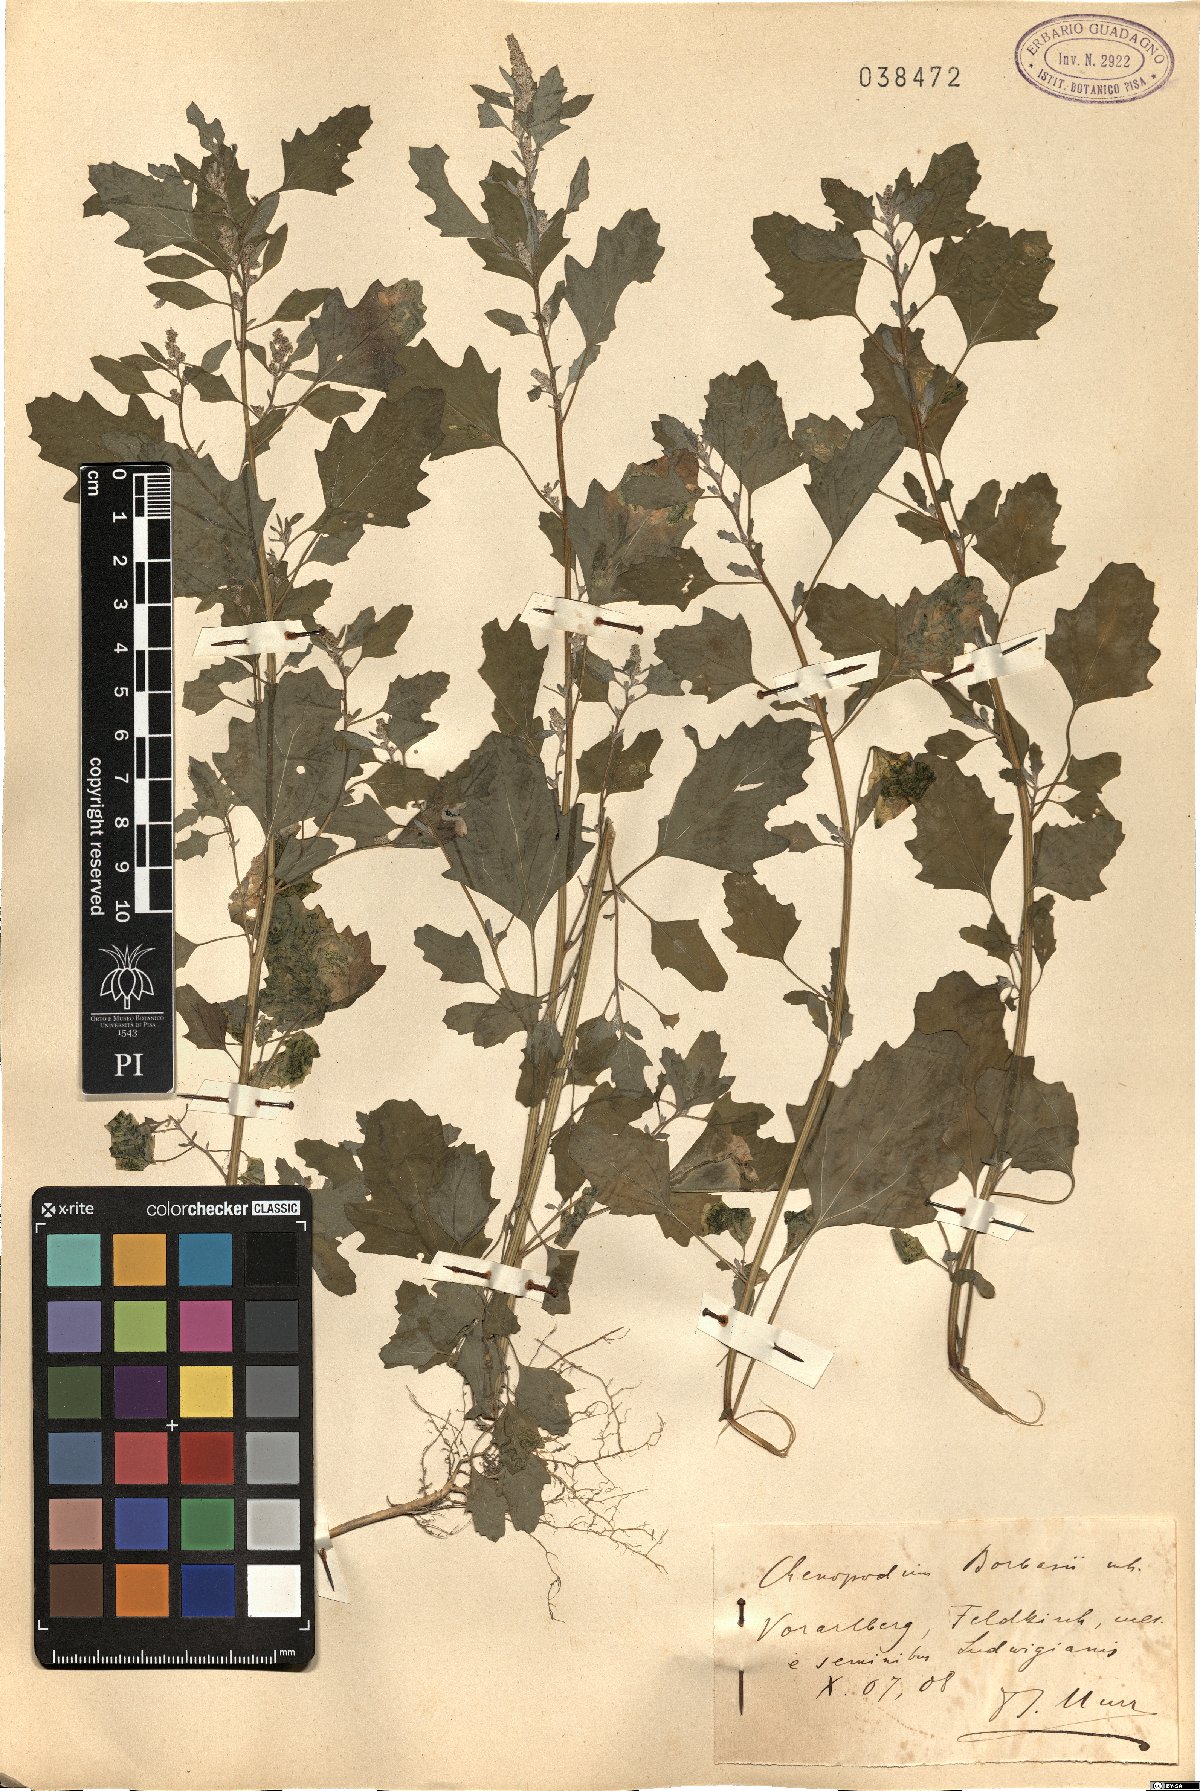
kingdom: Plantae
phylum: Tracheophyta
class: Magnoliopsida
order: Caryophyllales
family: Amaranthaceae
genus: Chenopodium
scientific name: Chenopodium borbasii
